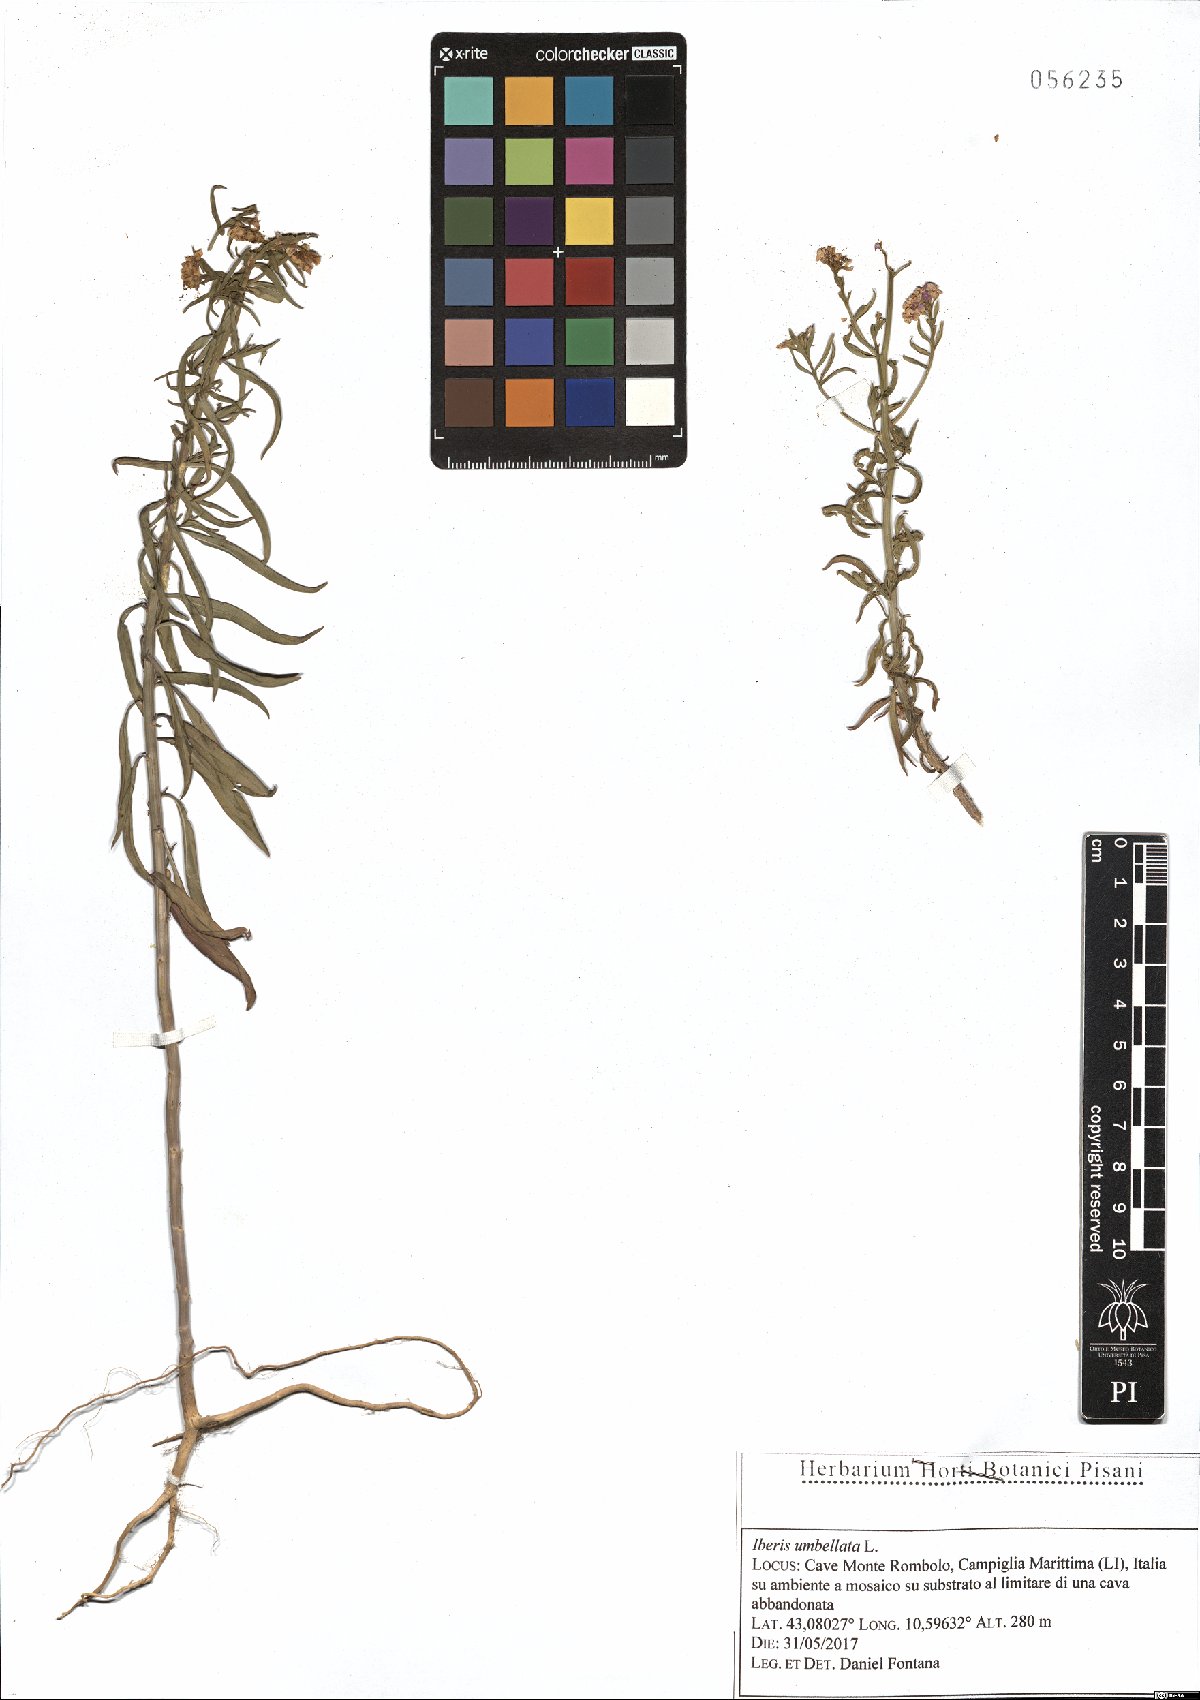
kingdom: Plantae
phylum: Tracheophyta
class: Magnoliopsida
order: Brassicales
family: Brassicaceae
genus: Iberis
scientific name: Iberis umbellata
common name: Globe candytuft
